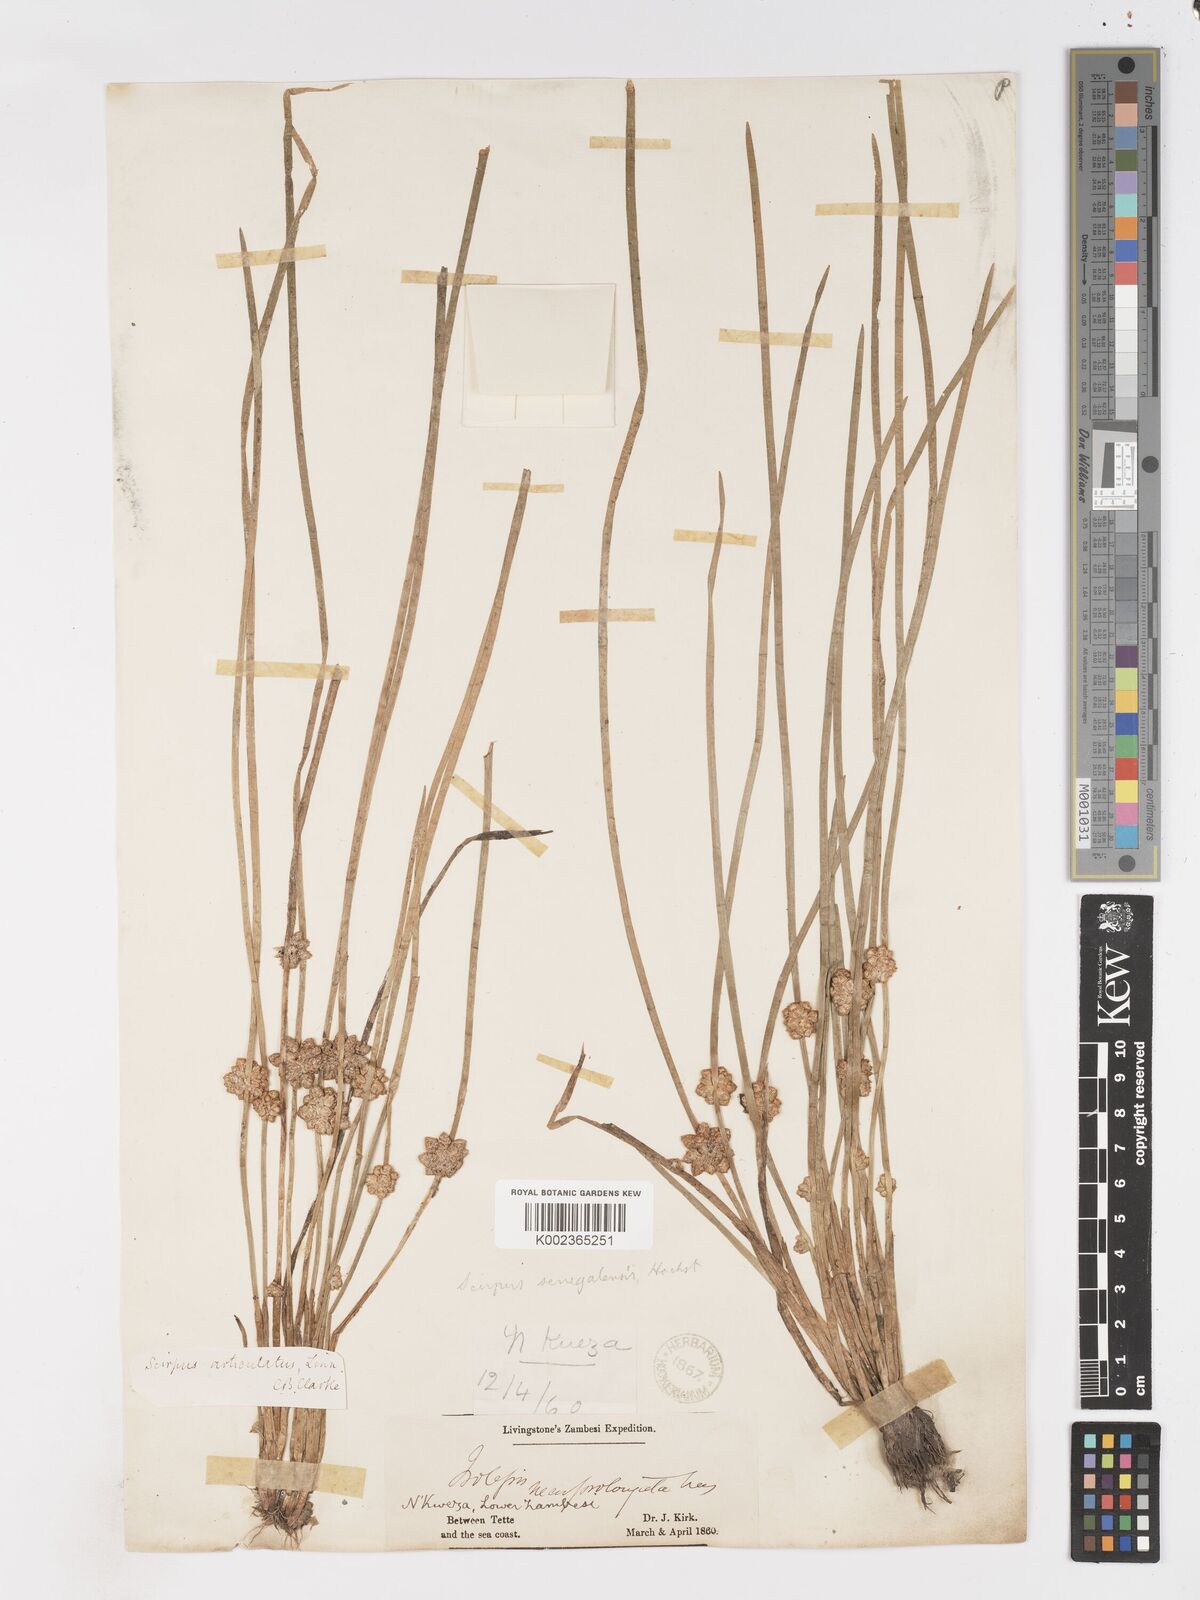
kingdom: Plantae
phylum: Tracheophyta
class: Liliopsida
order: Poales
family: Cyperaceae
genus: Schoenoplectiella
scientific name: Schoenoplectiella senegalensis
